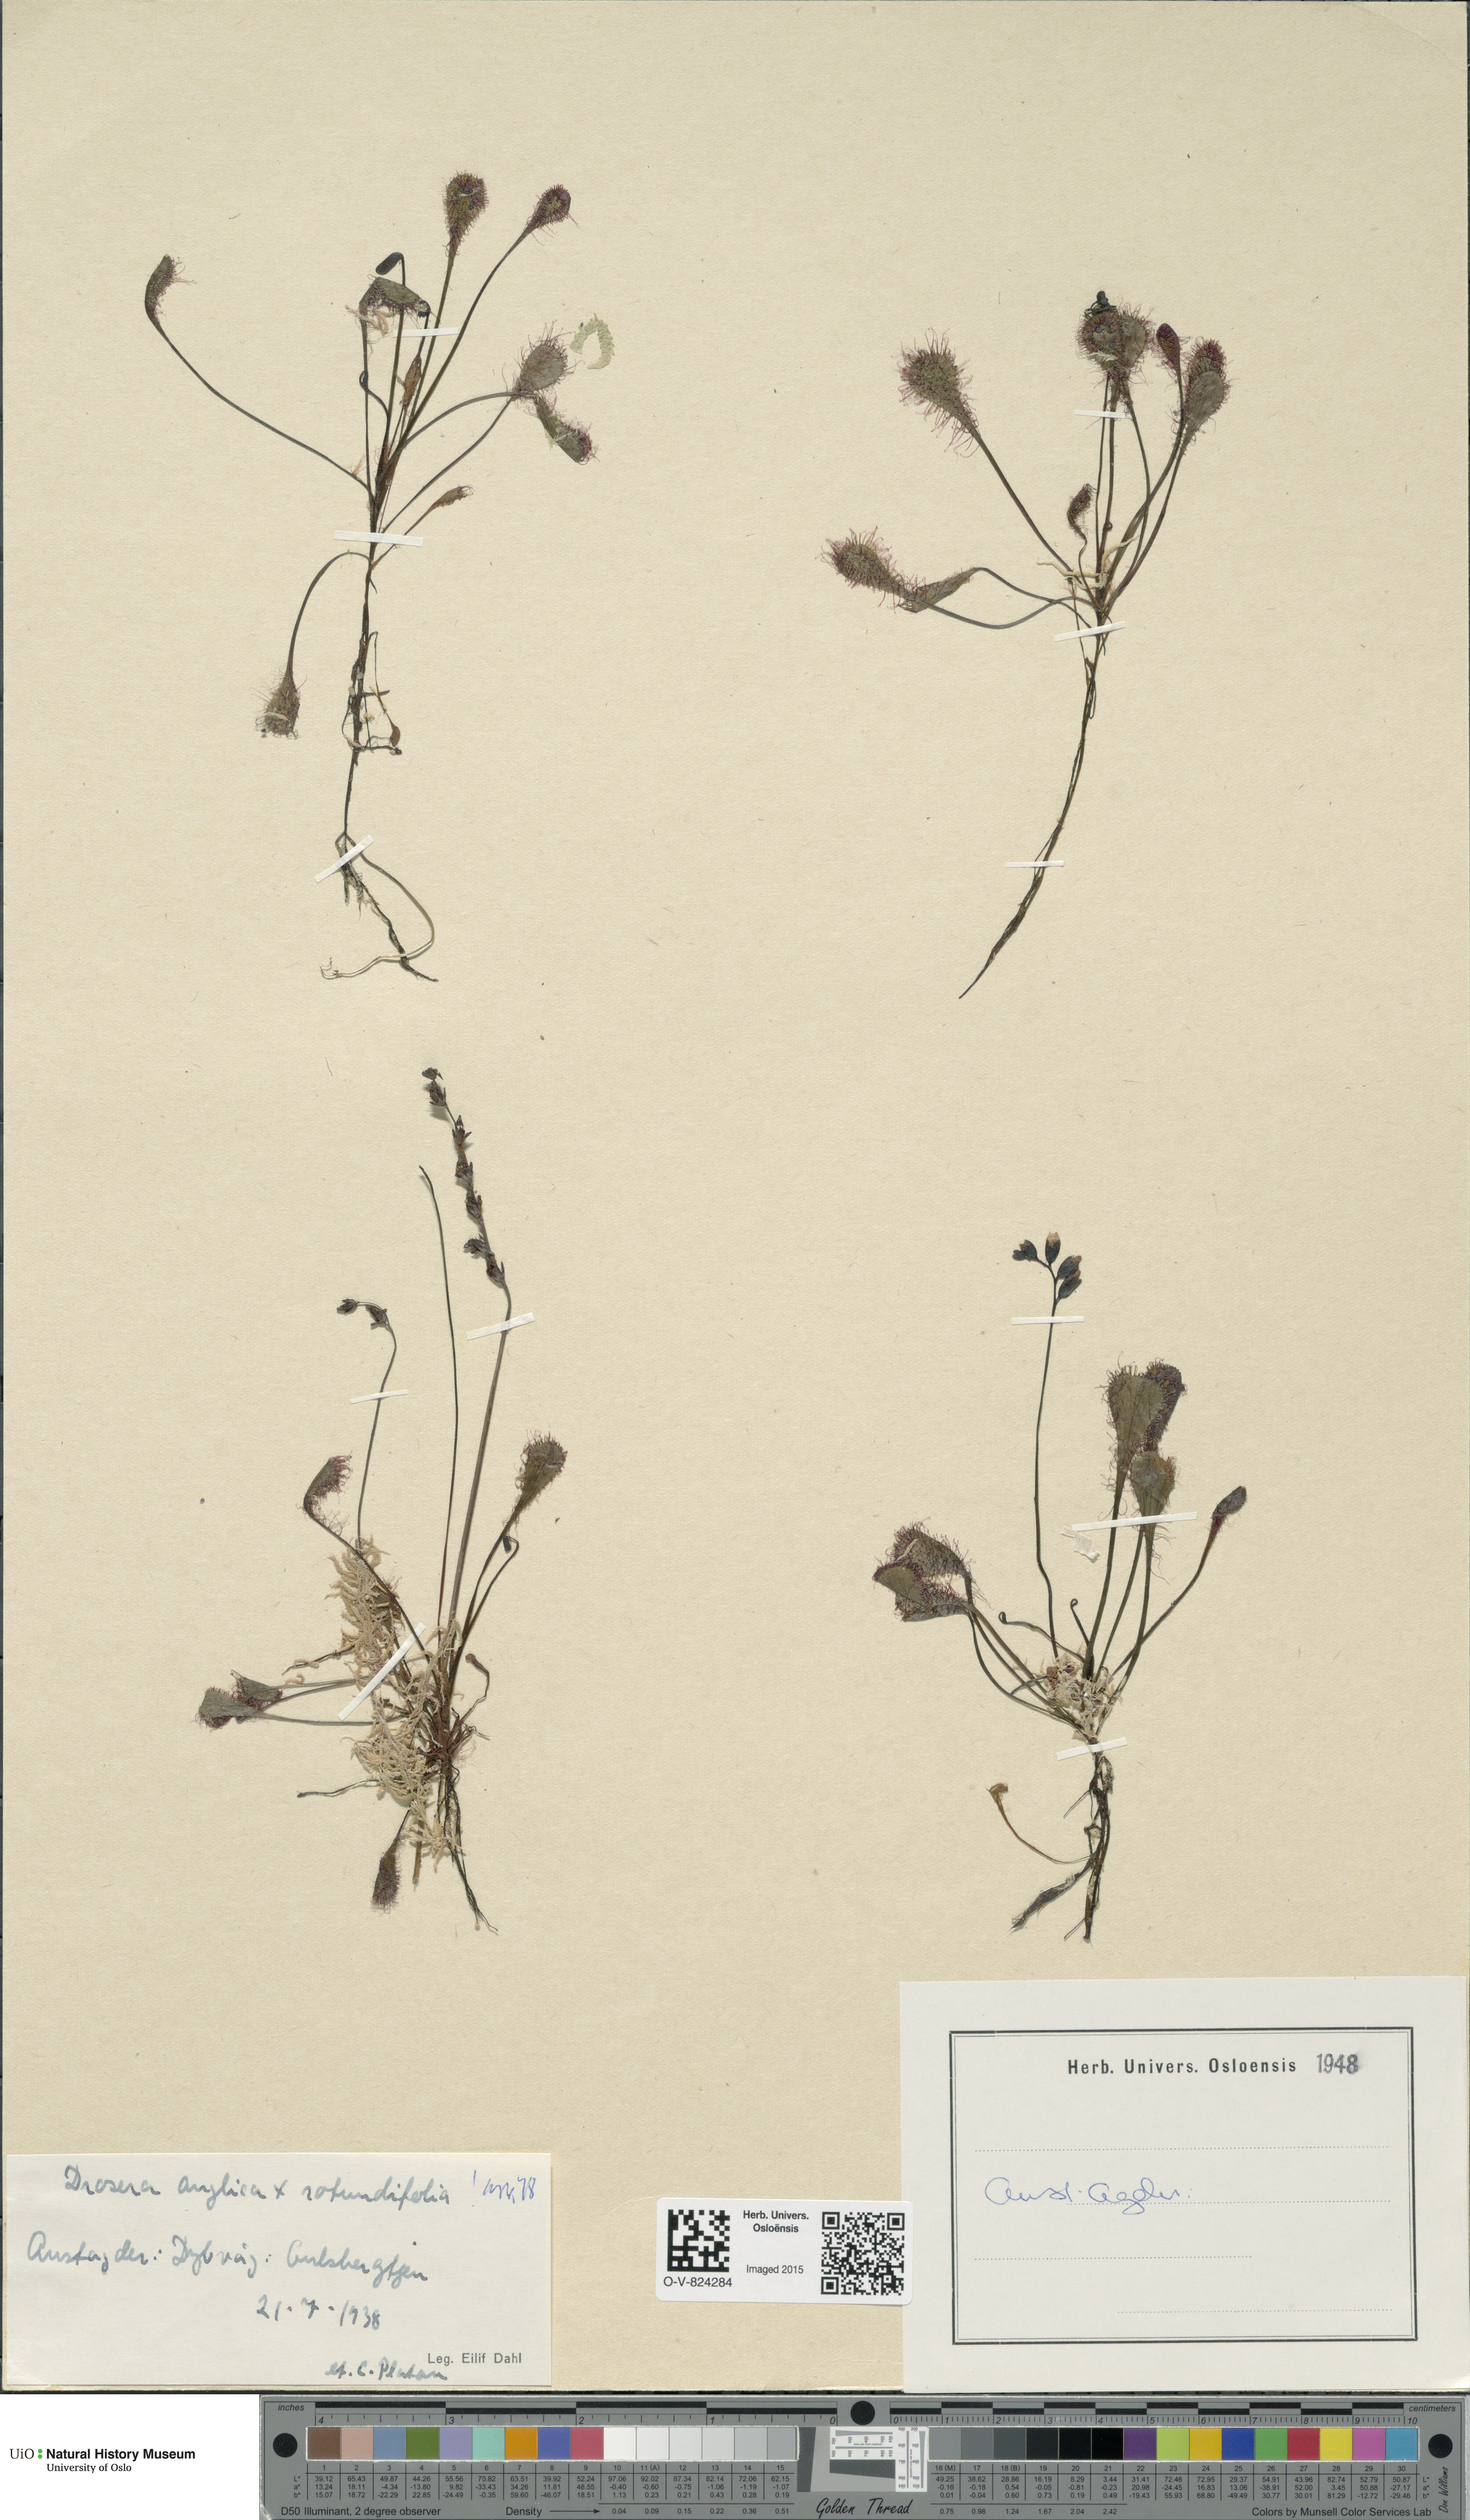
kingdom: Plantae
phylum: Tracheophyta
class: Magnoliopsida
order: Caryophyllales
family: Droseraceae
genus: Drosera
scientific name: Drosera
